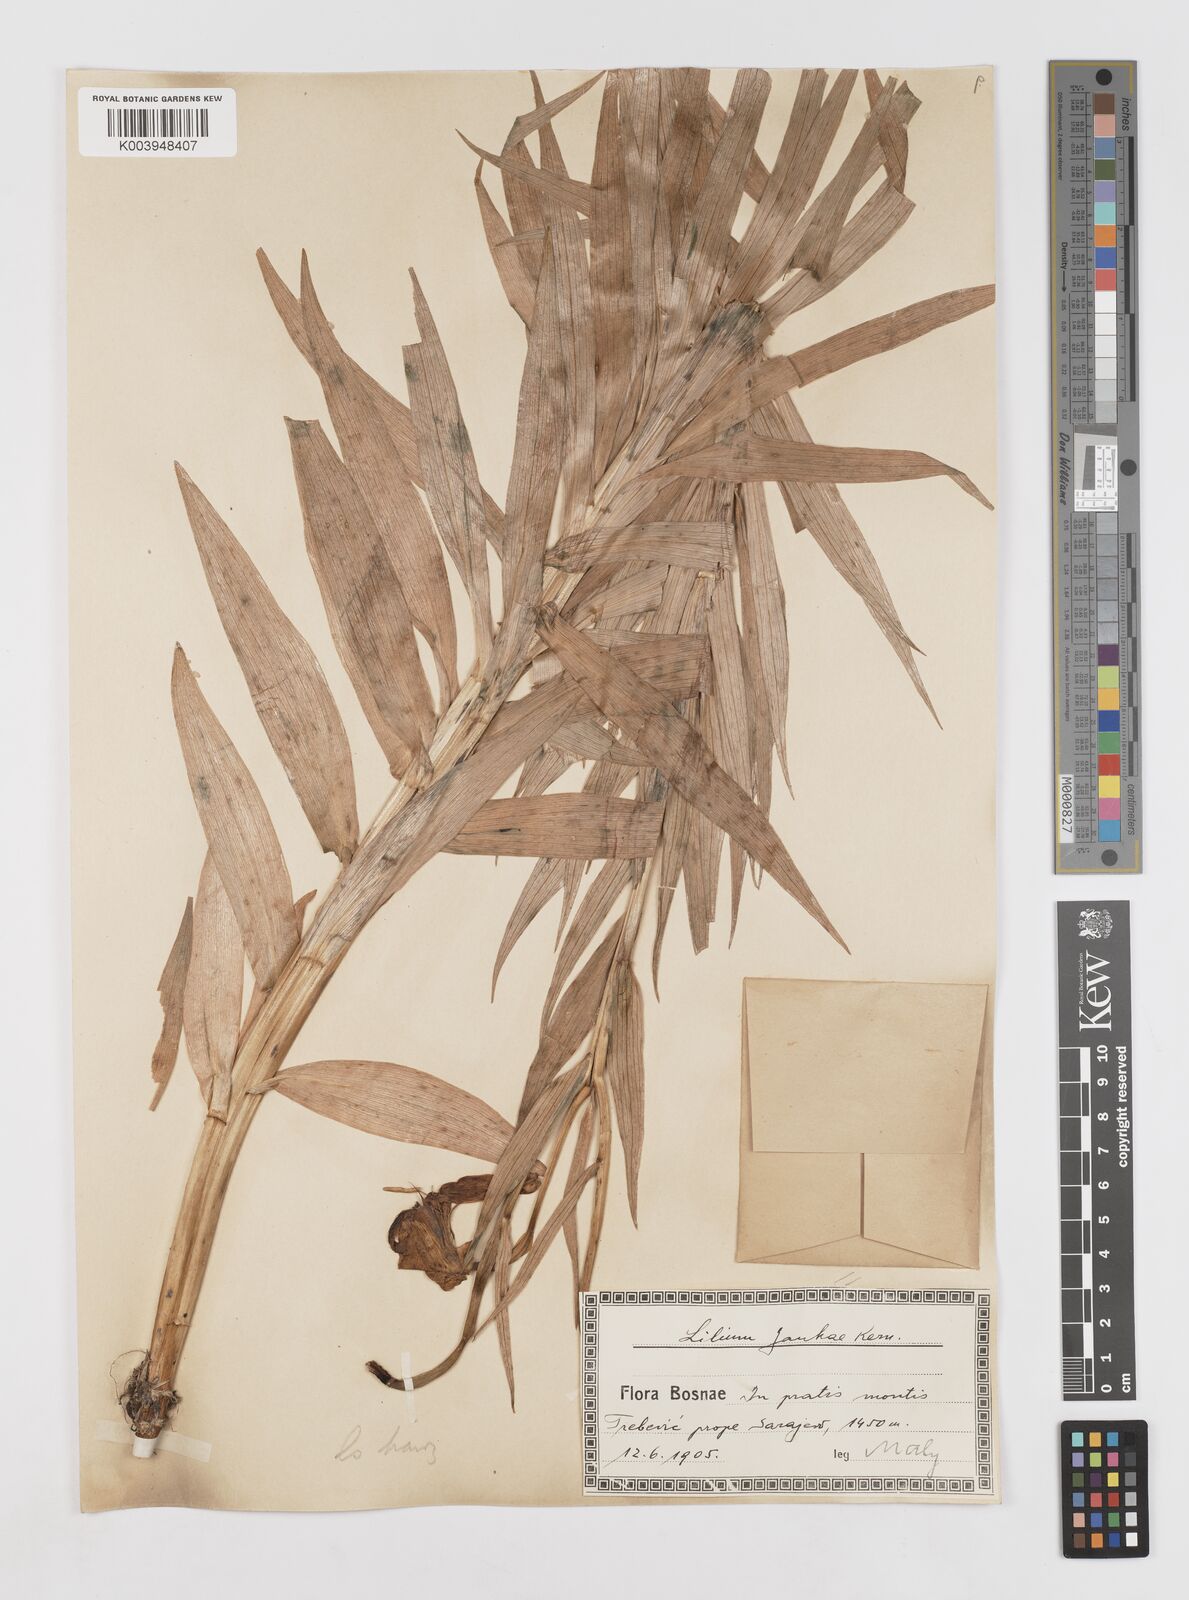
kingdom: Plantae
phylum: Tracheophyta
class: Liliopsida
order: Liliales
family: Liliaceae
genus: Lilium
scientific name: Lilium jankae
